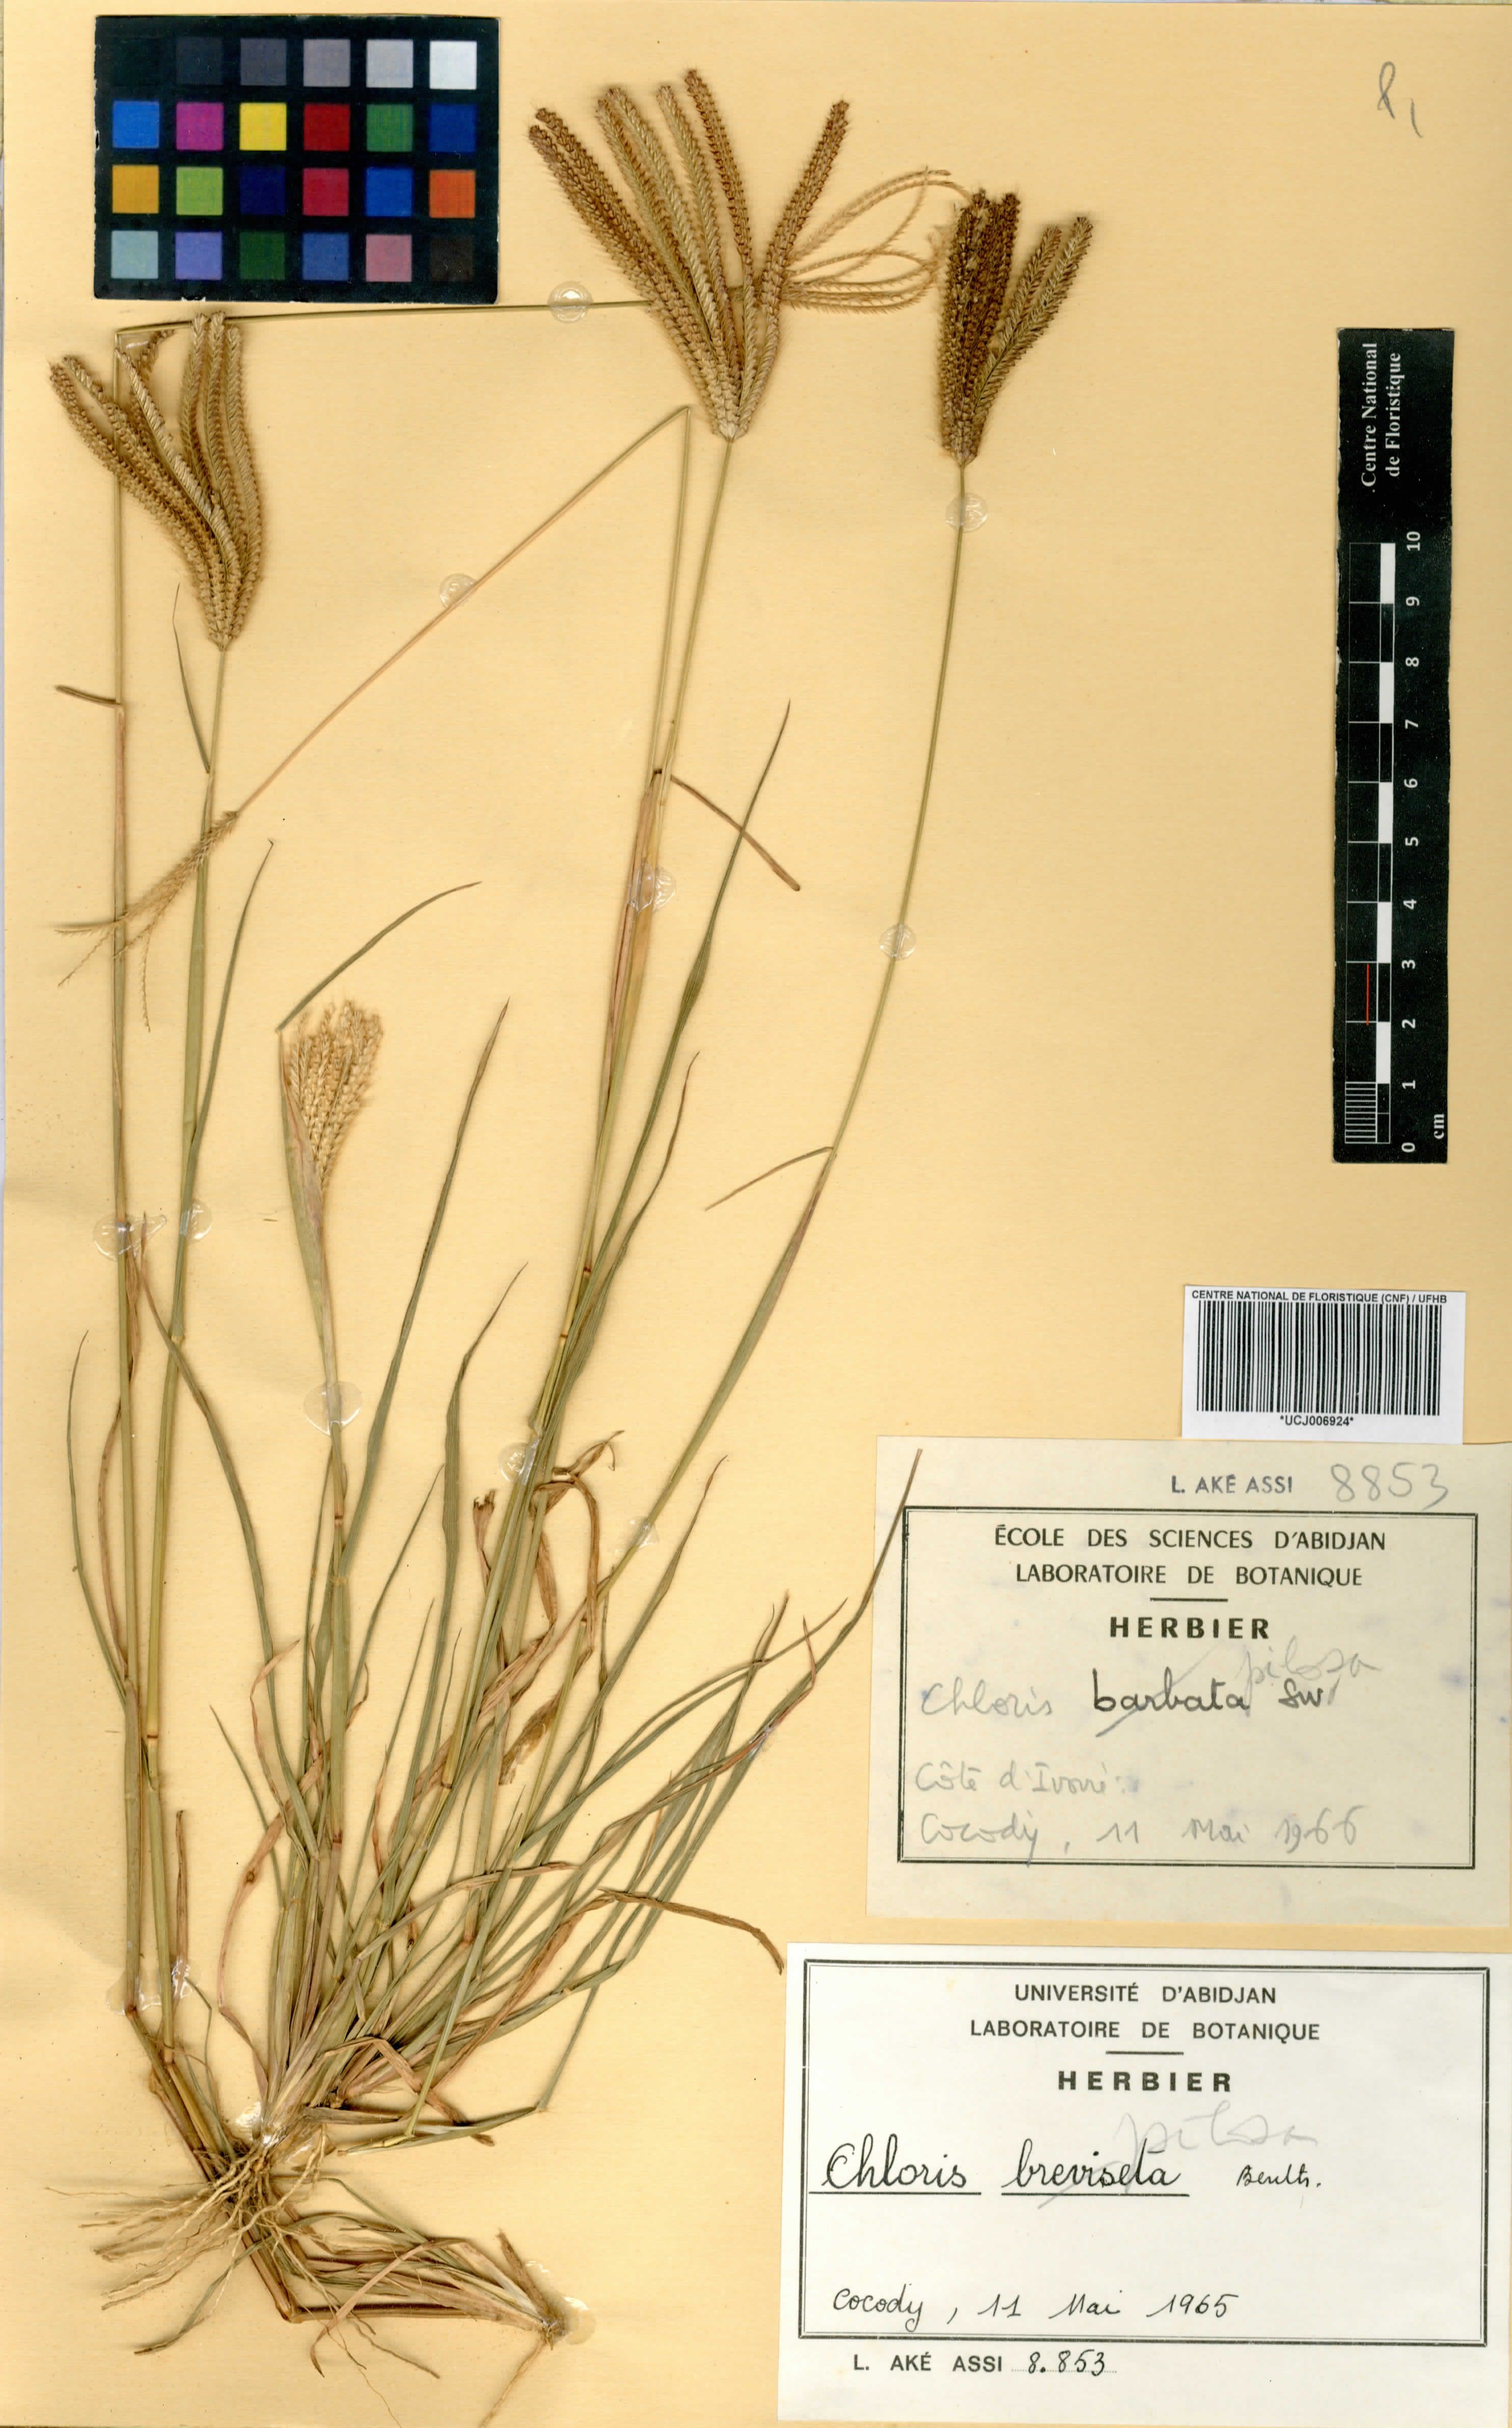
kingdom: Plantae
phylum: Tracheophyta
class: Liliopsida
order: Poales
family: Poaceae
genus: Chloris
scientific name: Chloris pilosa
